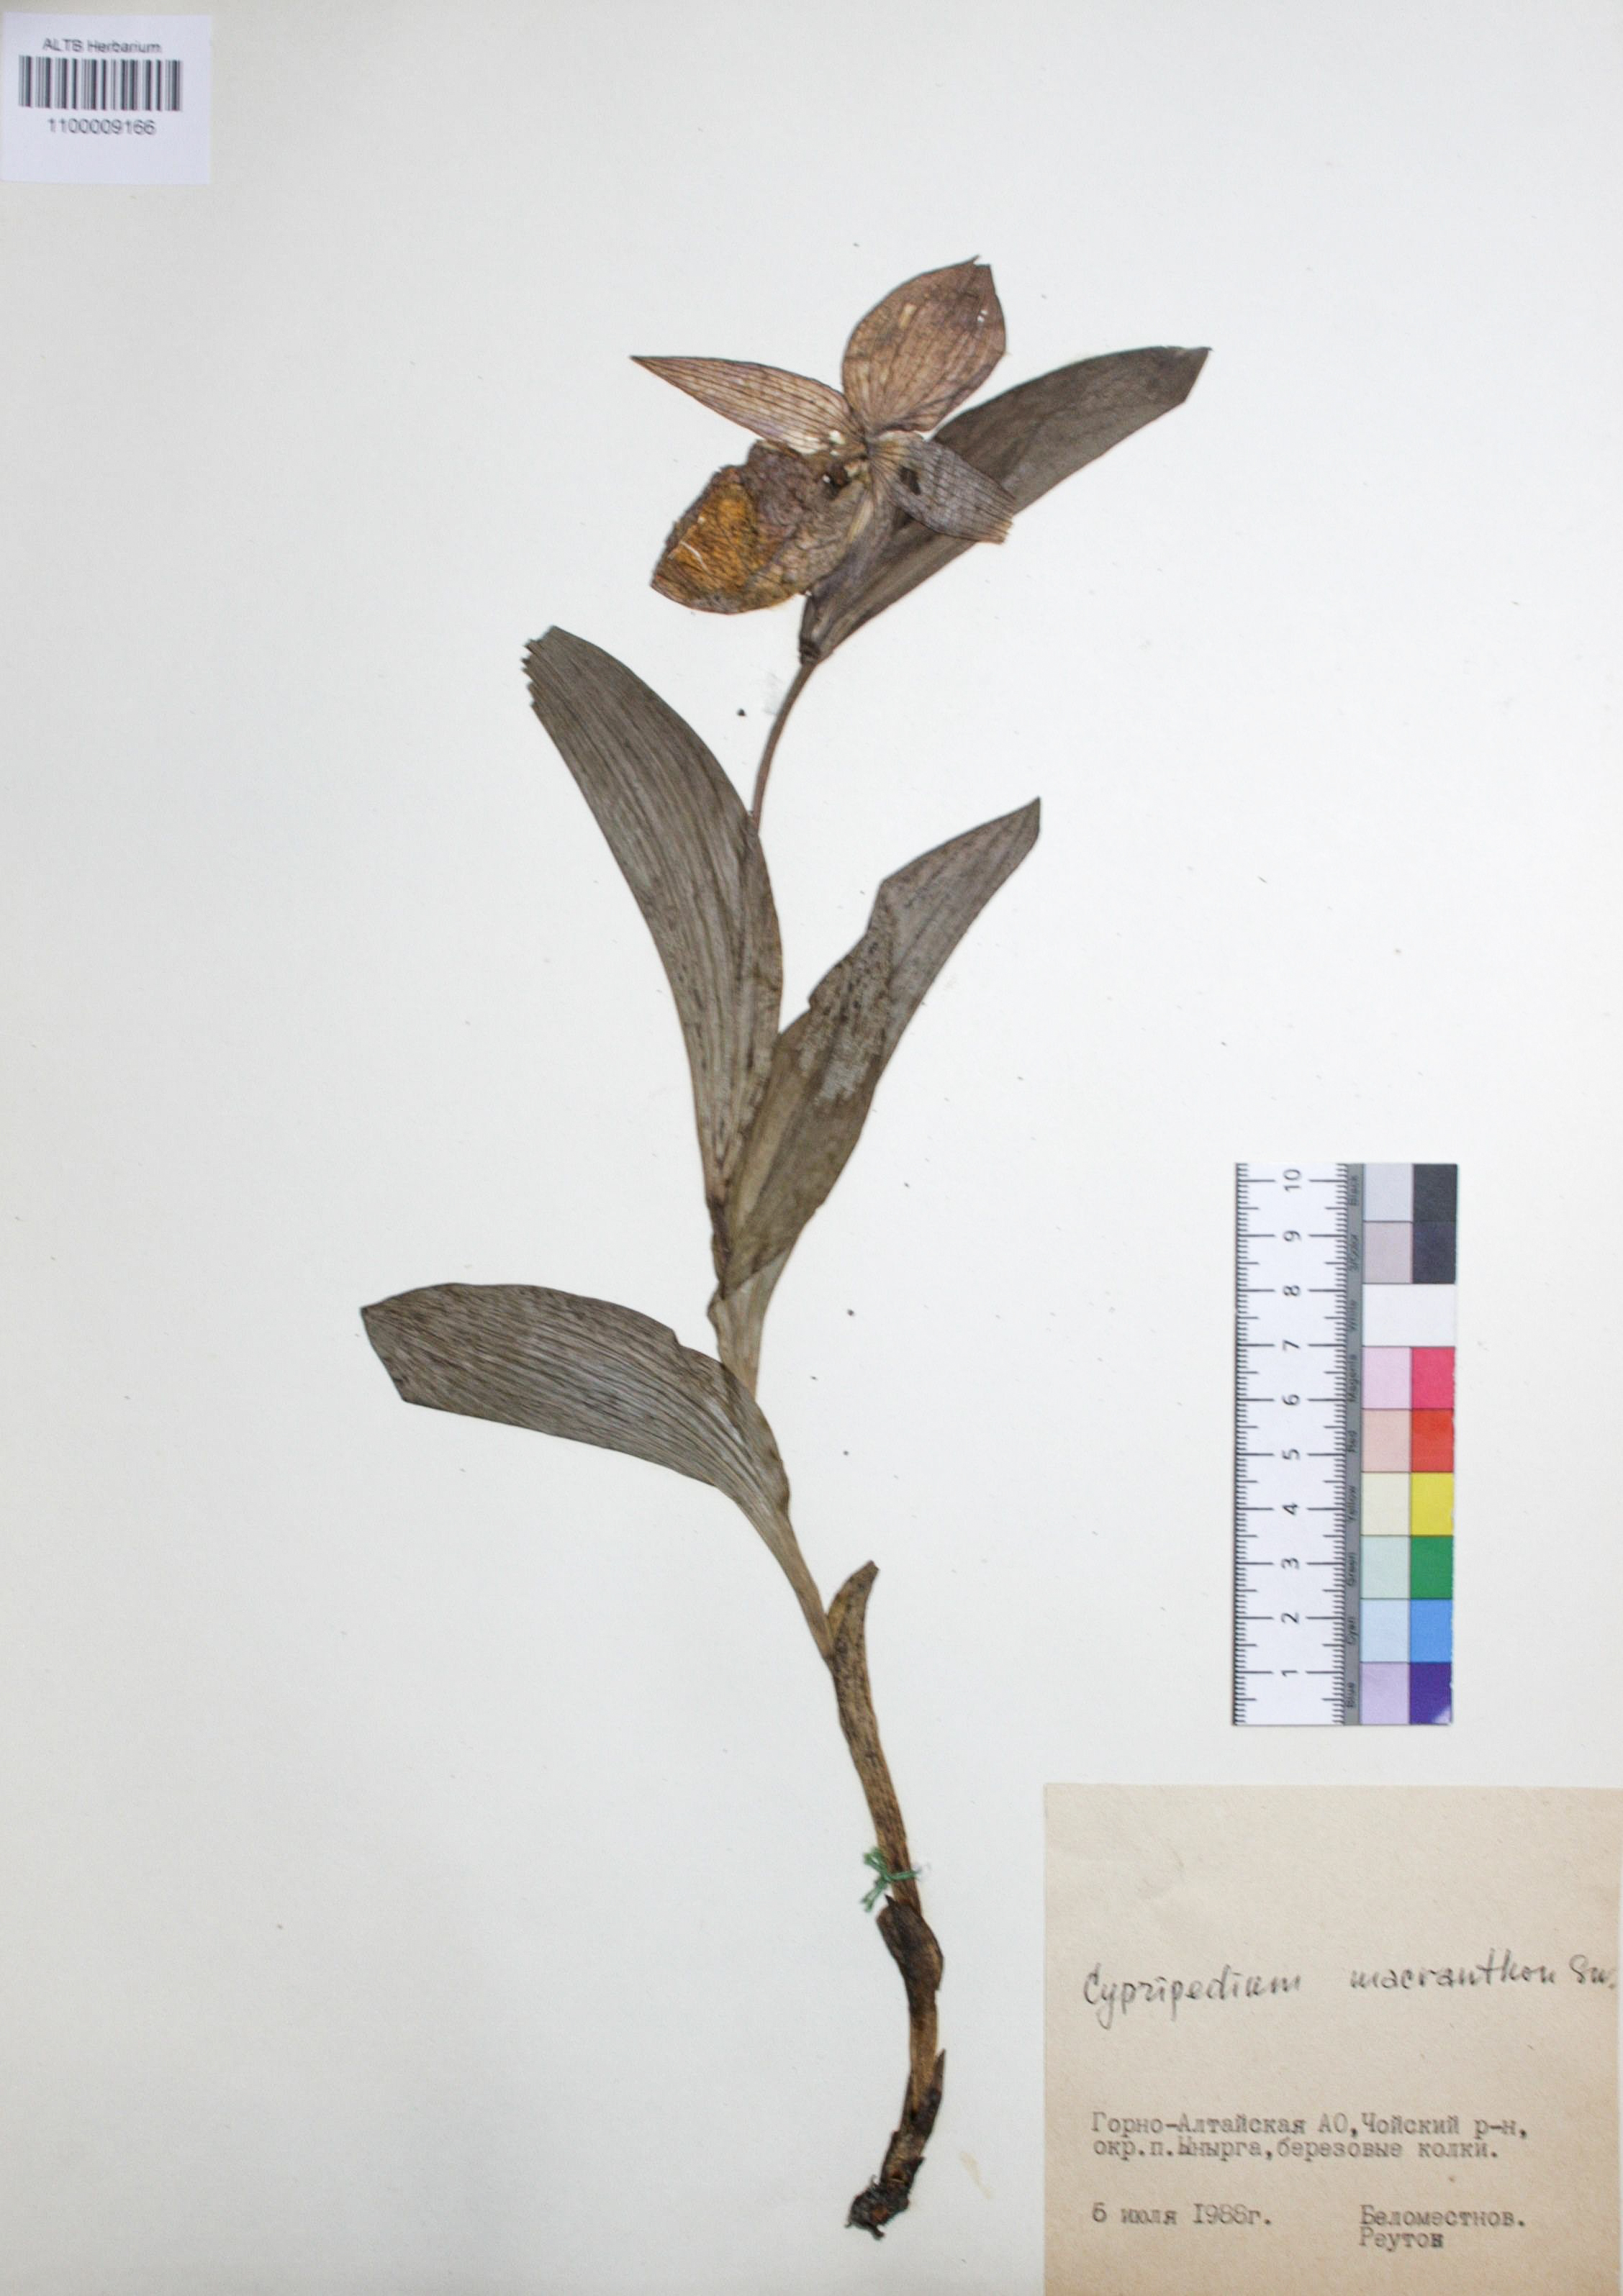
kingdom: Plantae
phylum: Tracheophyta
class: Liliopsida
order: Asparagales
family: Orchidaceae
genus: Cypripedium
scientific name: Cypripedium macranthon
